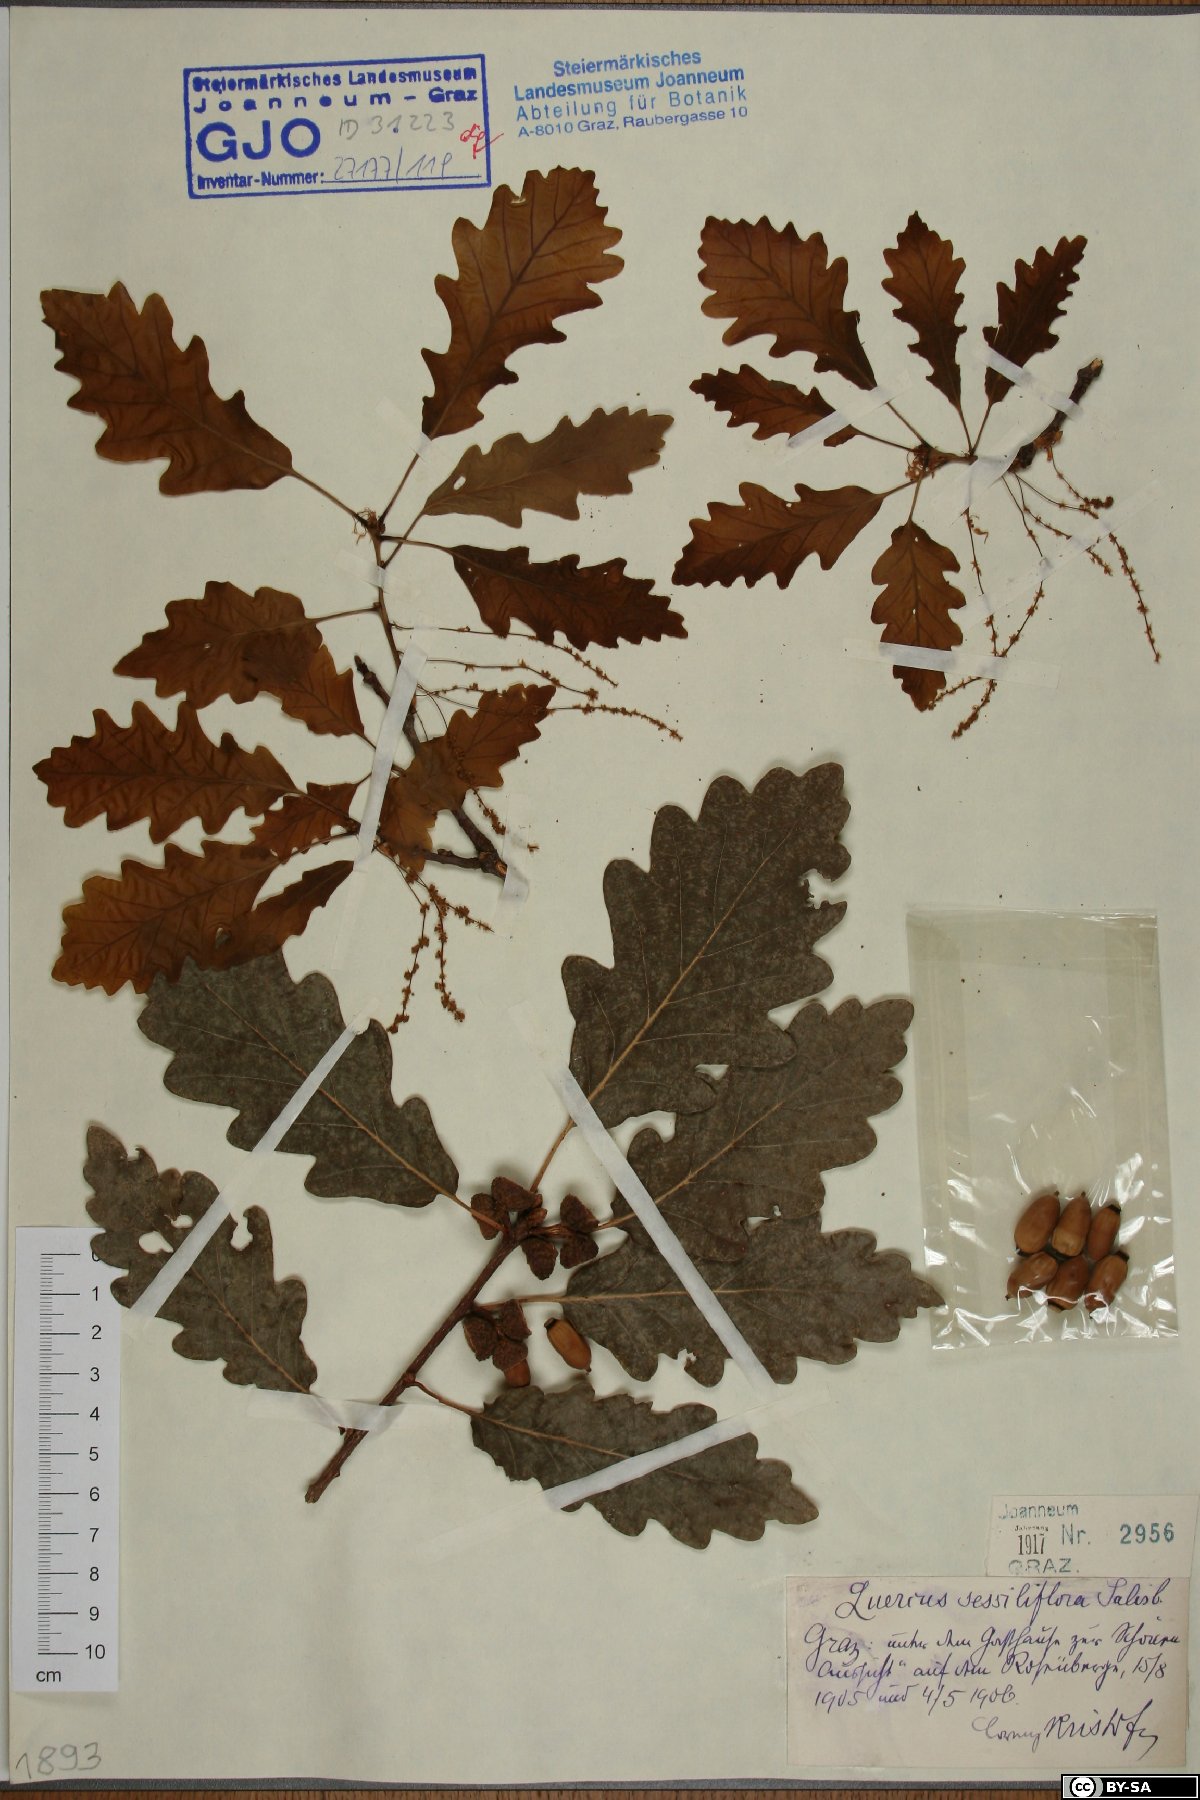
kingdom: Plantae
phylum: Tracheophyta
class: Magnoliopsida
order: Fagales
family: Fagaceae
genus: Quercus
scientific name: Quercus petraea
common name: Sessile oak
